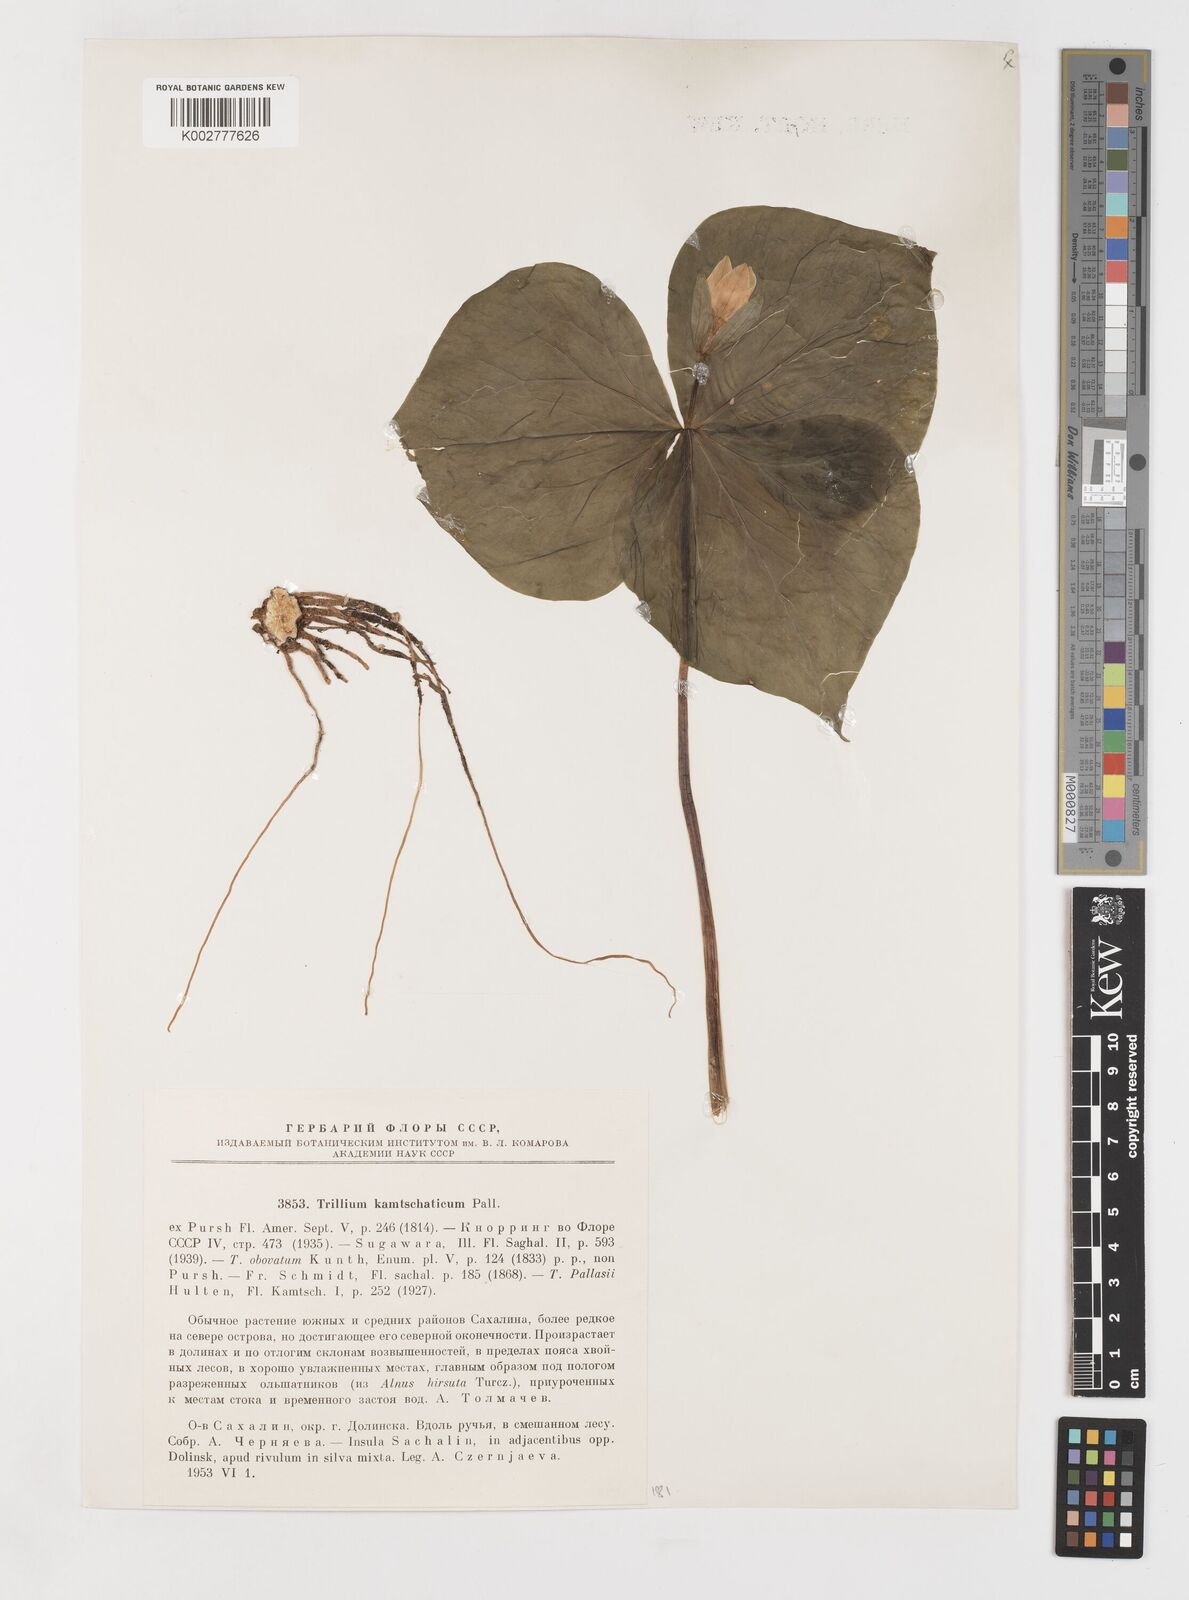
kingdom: Plantae
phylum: Tracheophyta
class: Liliopsida
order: Liliales
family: Melanthiaceae
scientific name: Melanthiaceae
